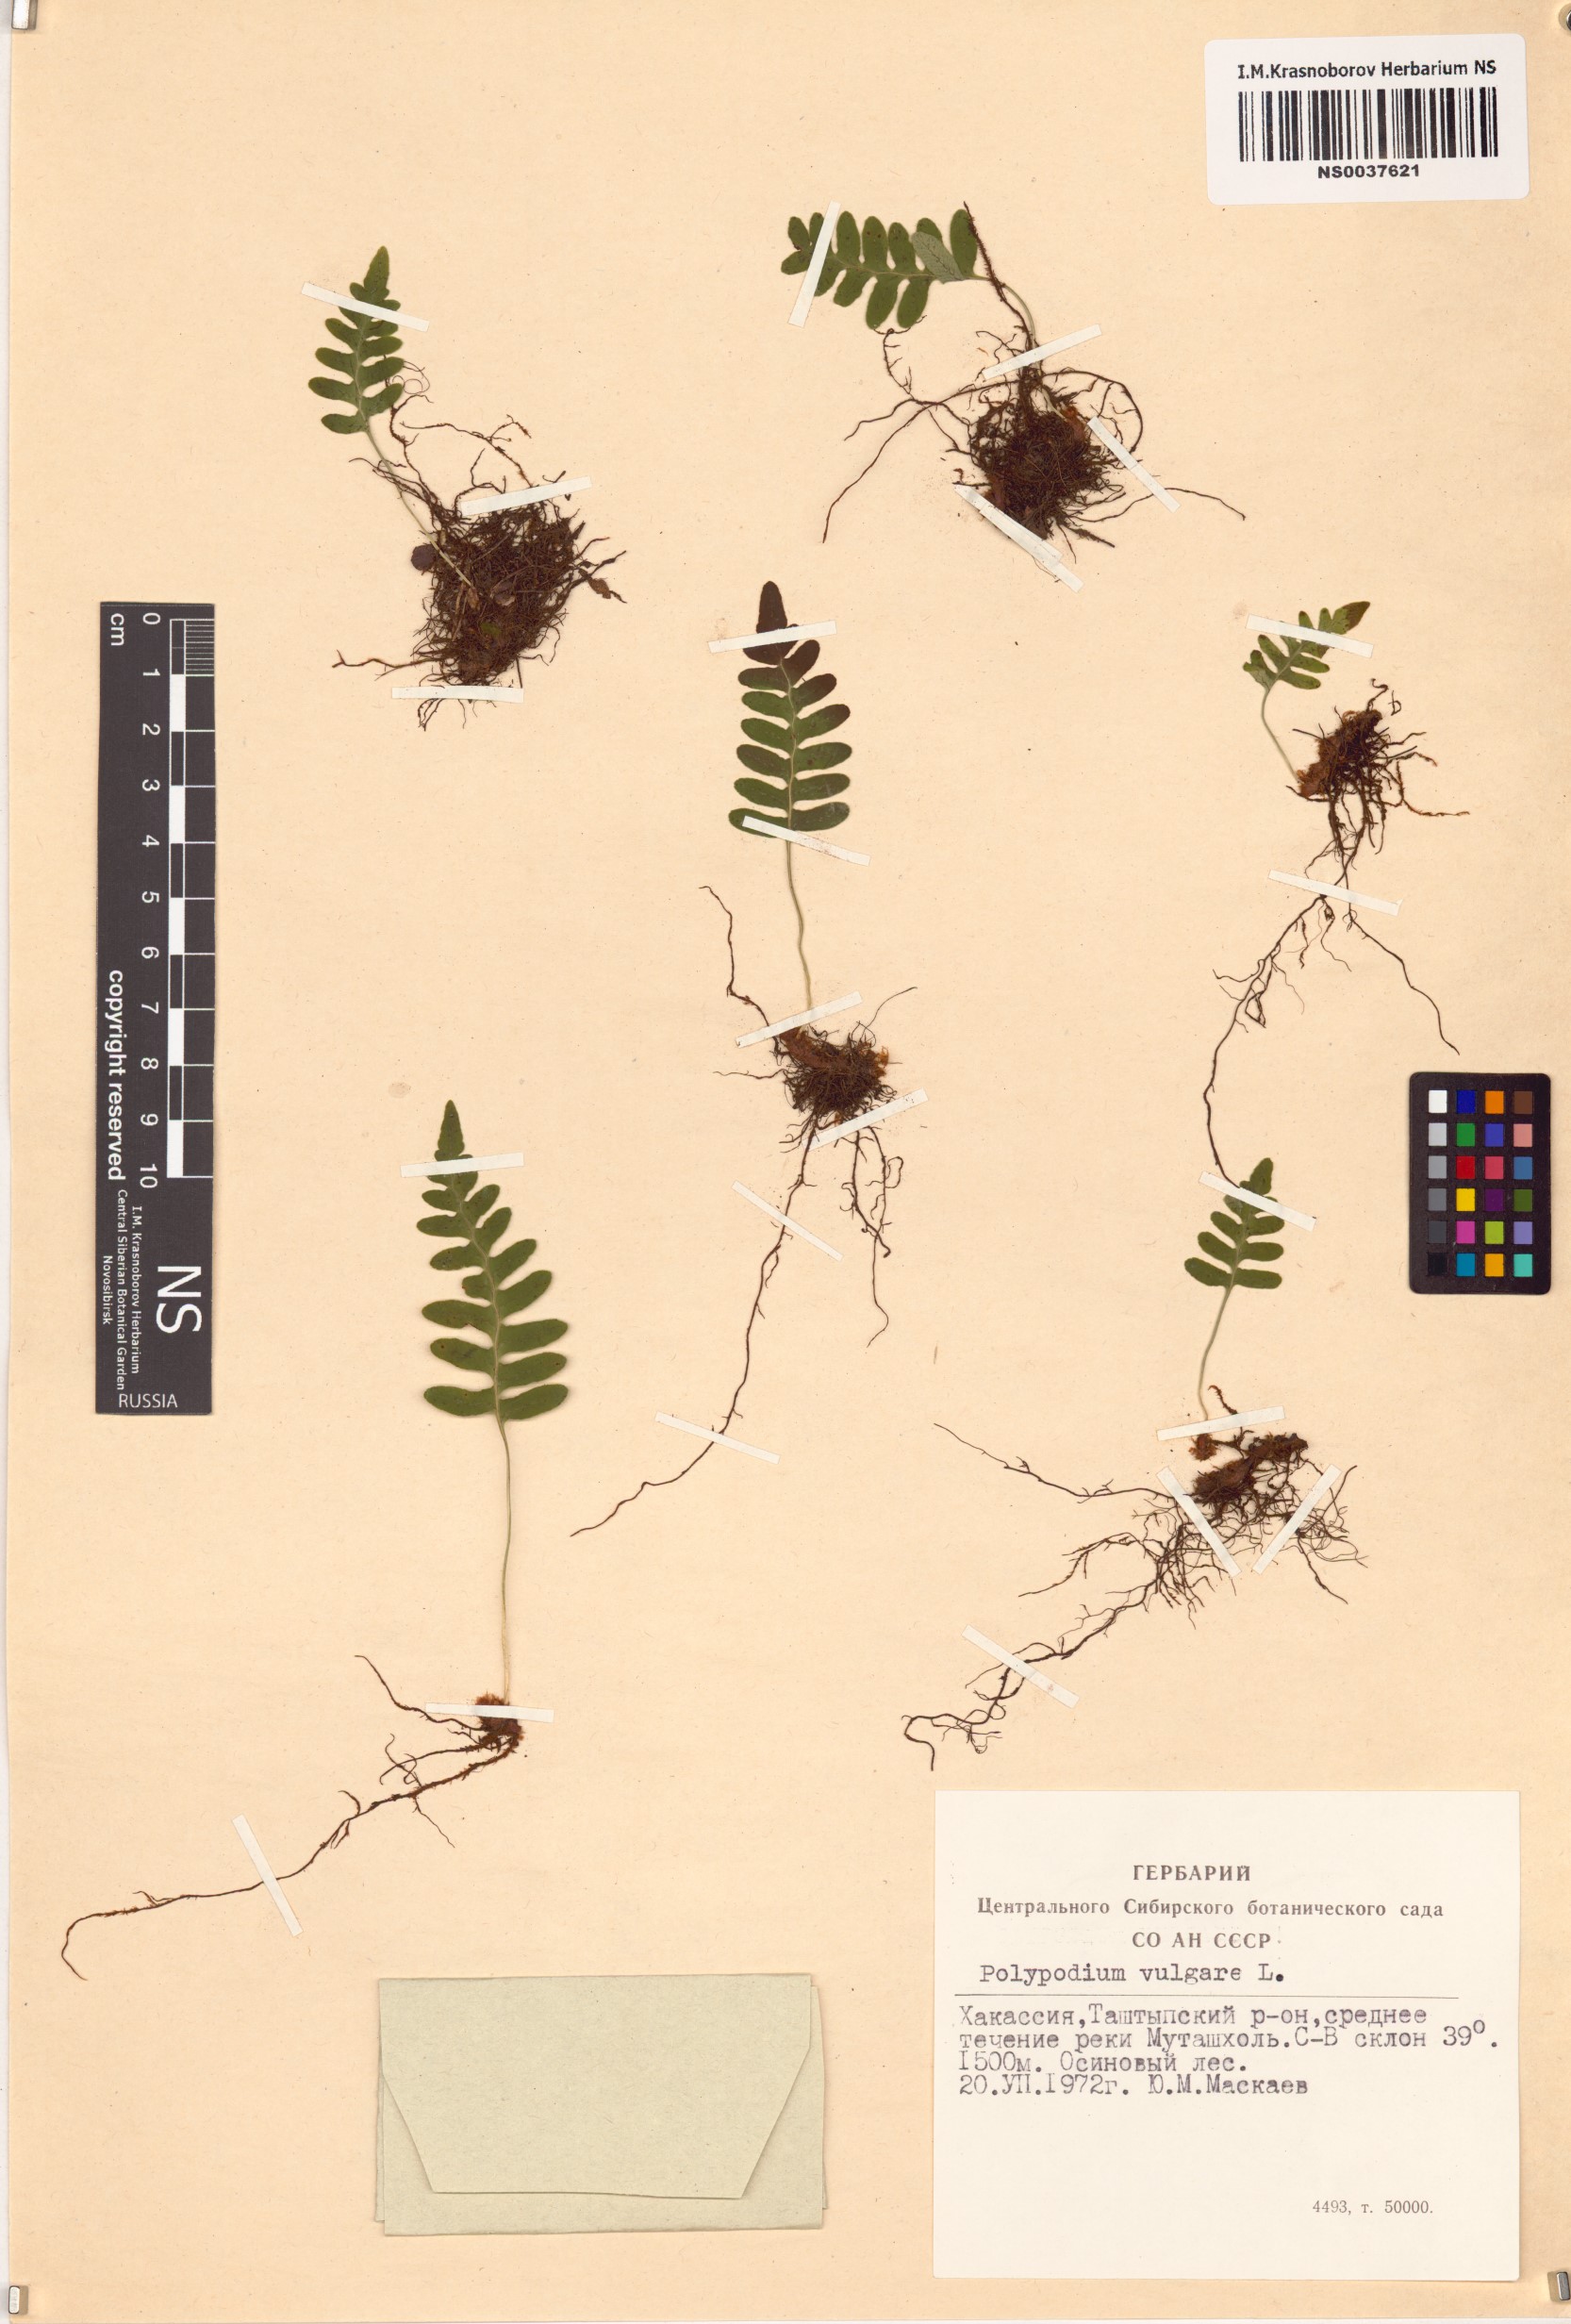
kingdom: Plantae
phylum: Tracheophyta
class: Polypodiopsida
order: Polypodiales
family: Polypodiaceae
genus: Polypodium
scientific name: Polypodium vulgare
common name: Common polypody
